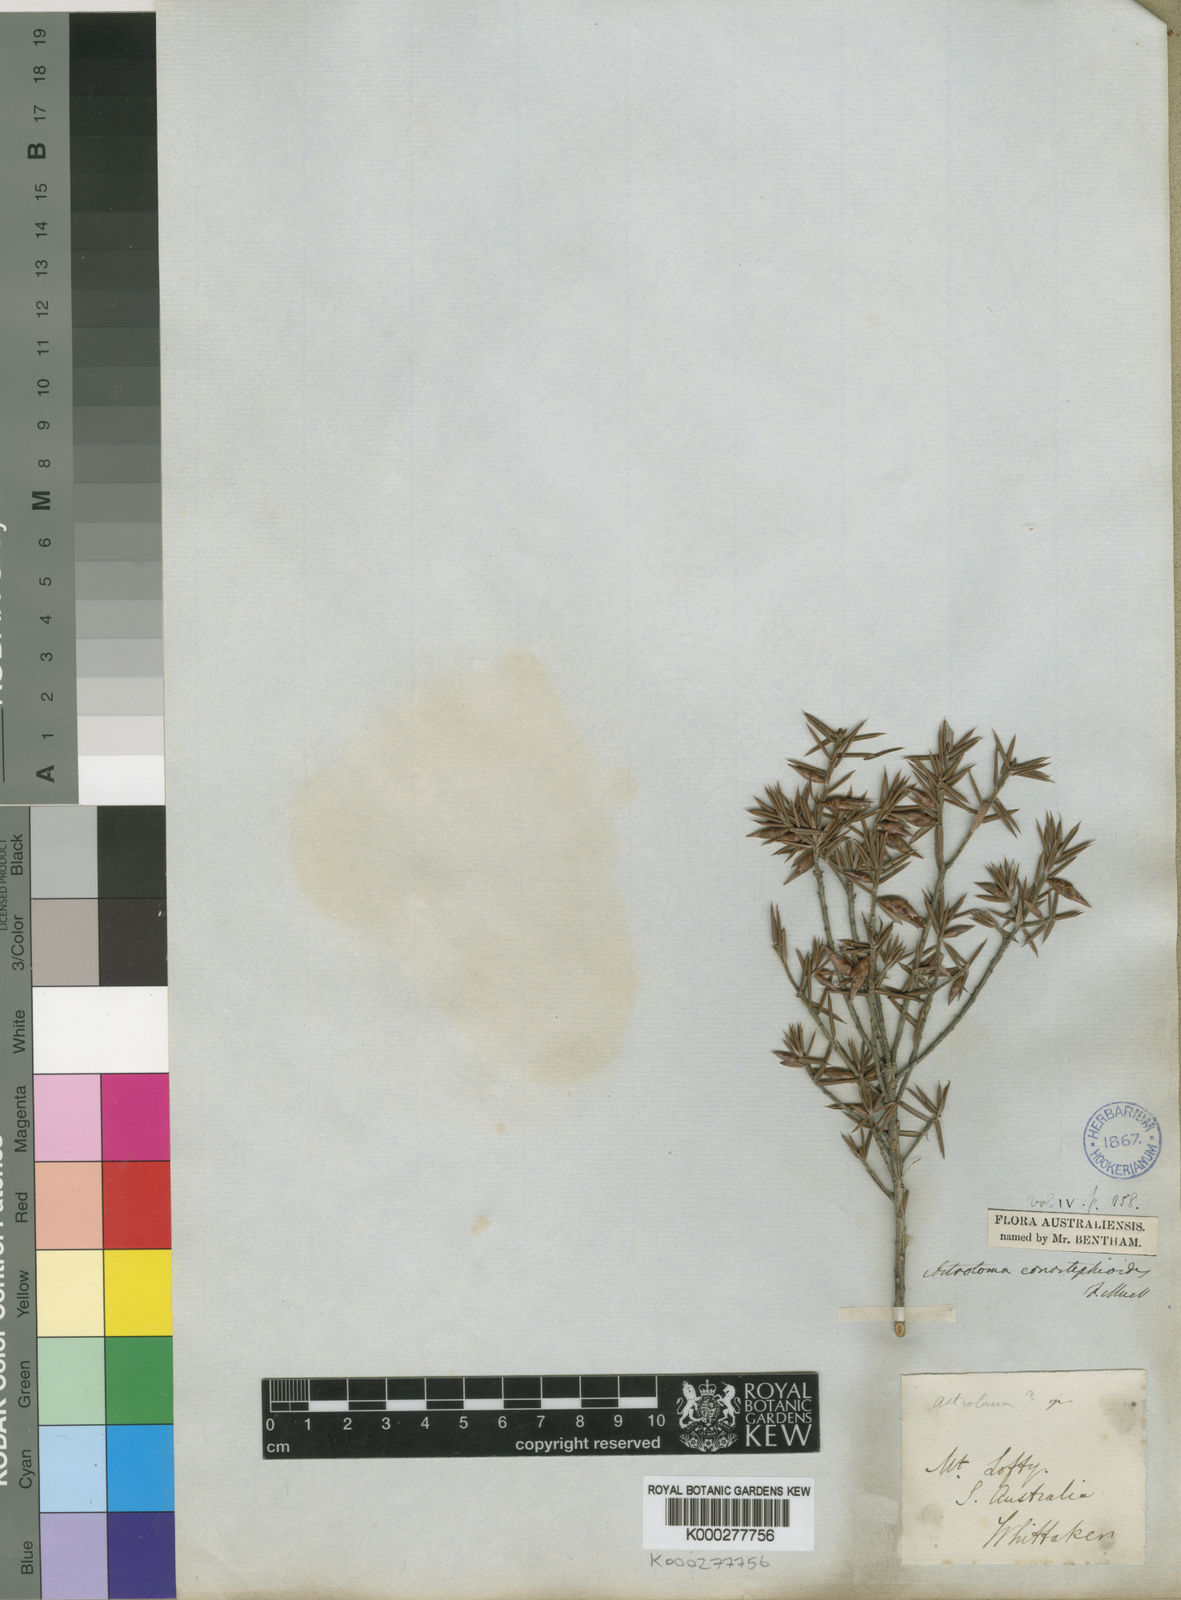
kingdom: Plantae
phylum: Tracheophyta
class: Magnoliopsida
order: Ericales
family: Ericaceae
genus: Stenanthera
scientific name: Stenanthera conostephioides
